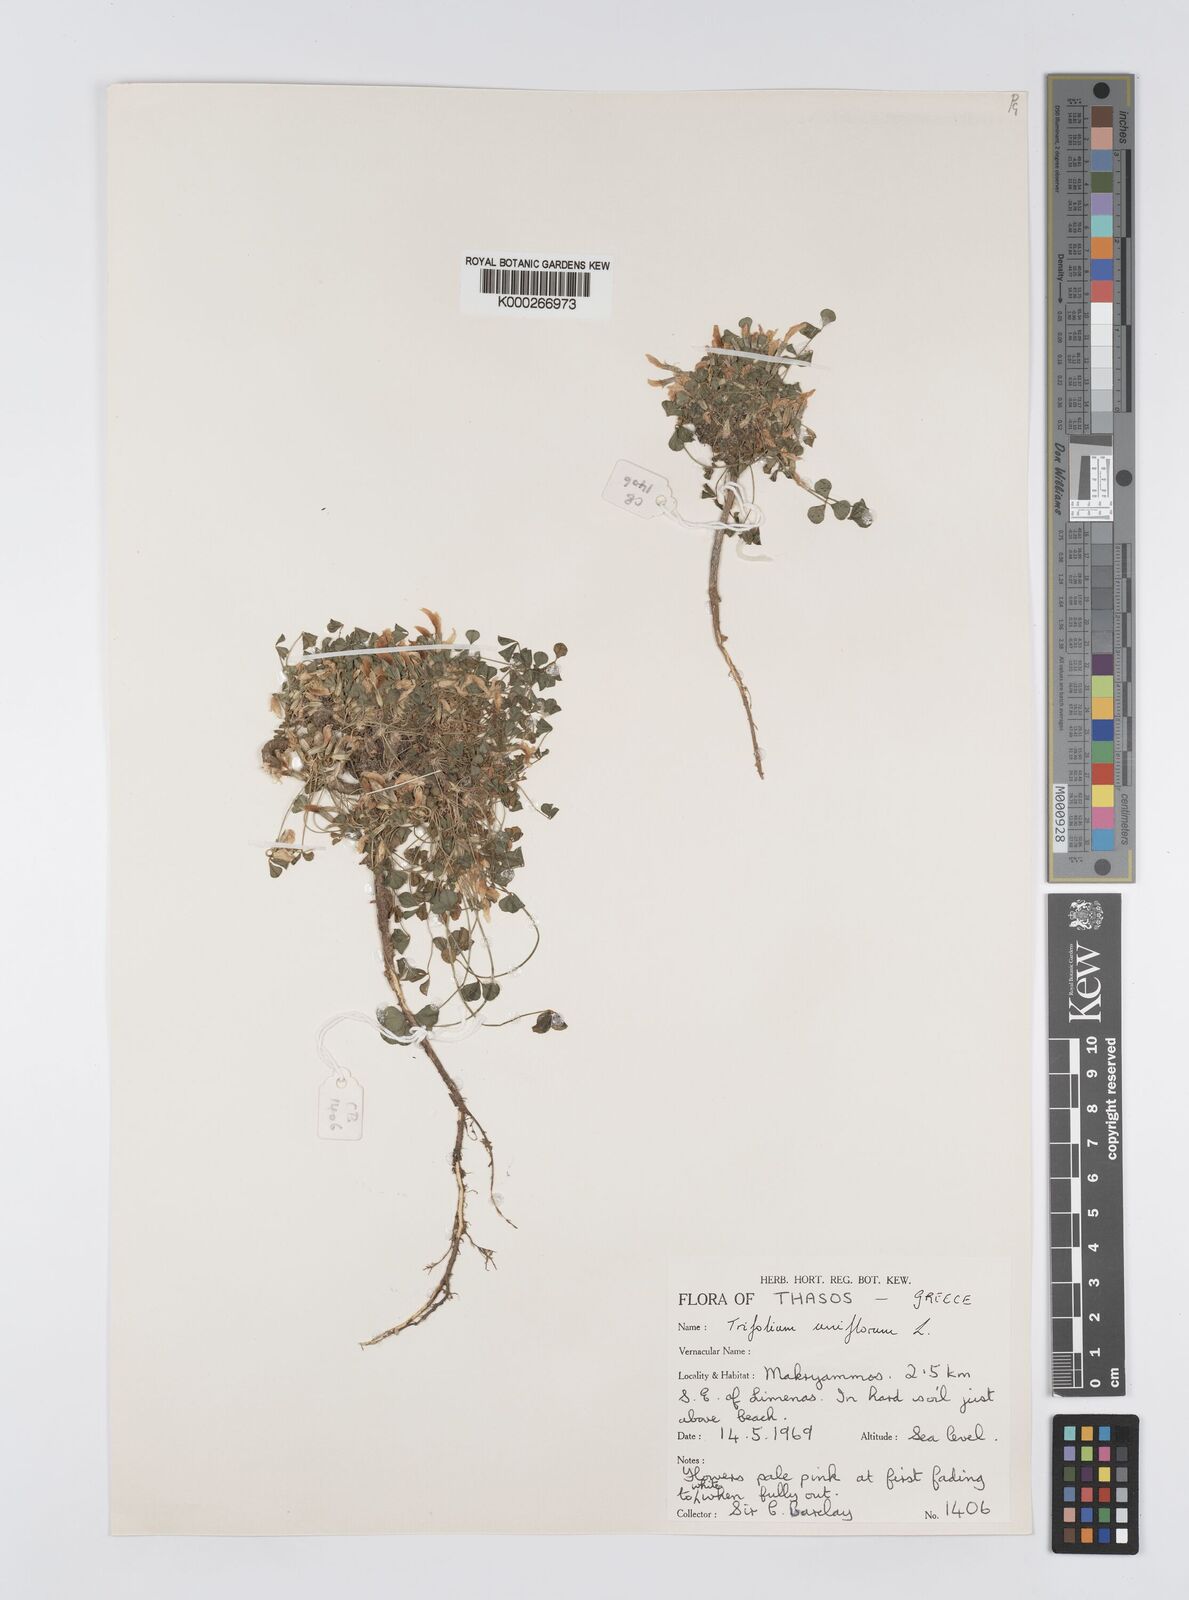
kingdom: Plantae
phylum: Tracheophyta
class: Magnoliopsida
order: Fabales
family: Fabaceae
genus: Trifolium
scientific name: Trifolium uniflorum
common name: One-flower clover
